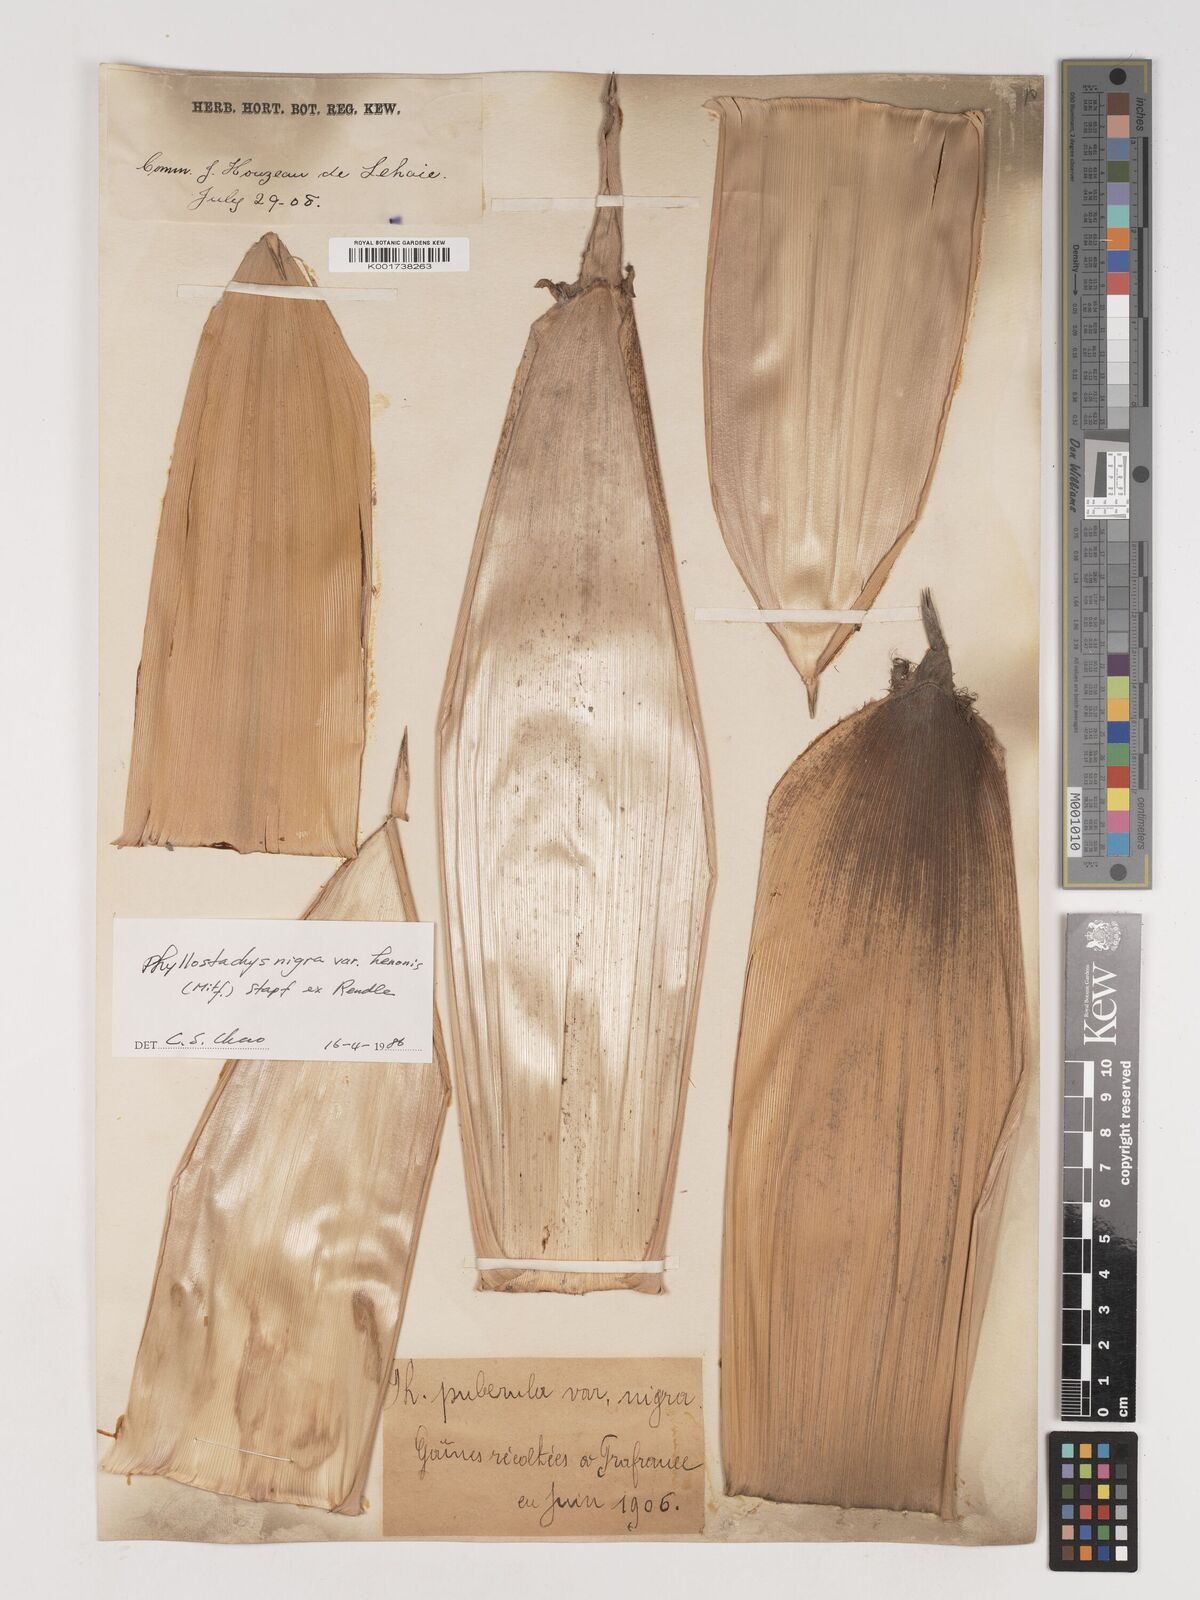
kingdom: Plantae
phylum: Tracheophyta
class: Liliopsida
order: Poales
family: Poaceae
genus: Phyllostachys
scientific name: Phyllostachys nigra
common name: Black bamboo
